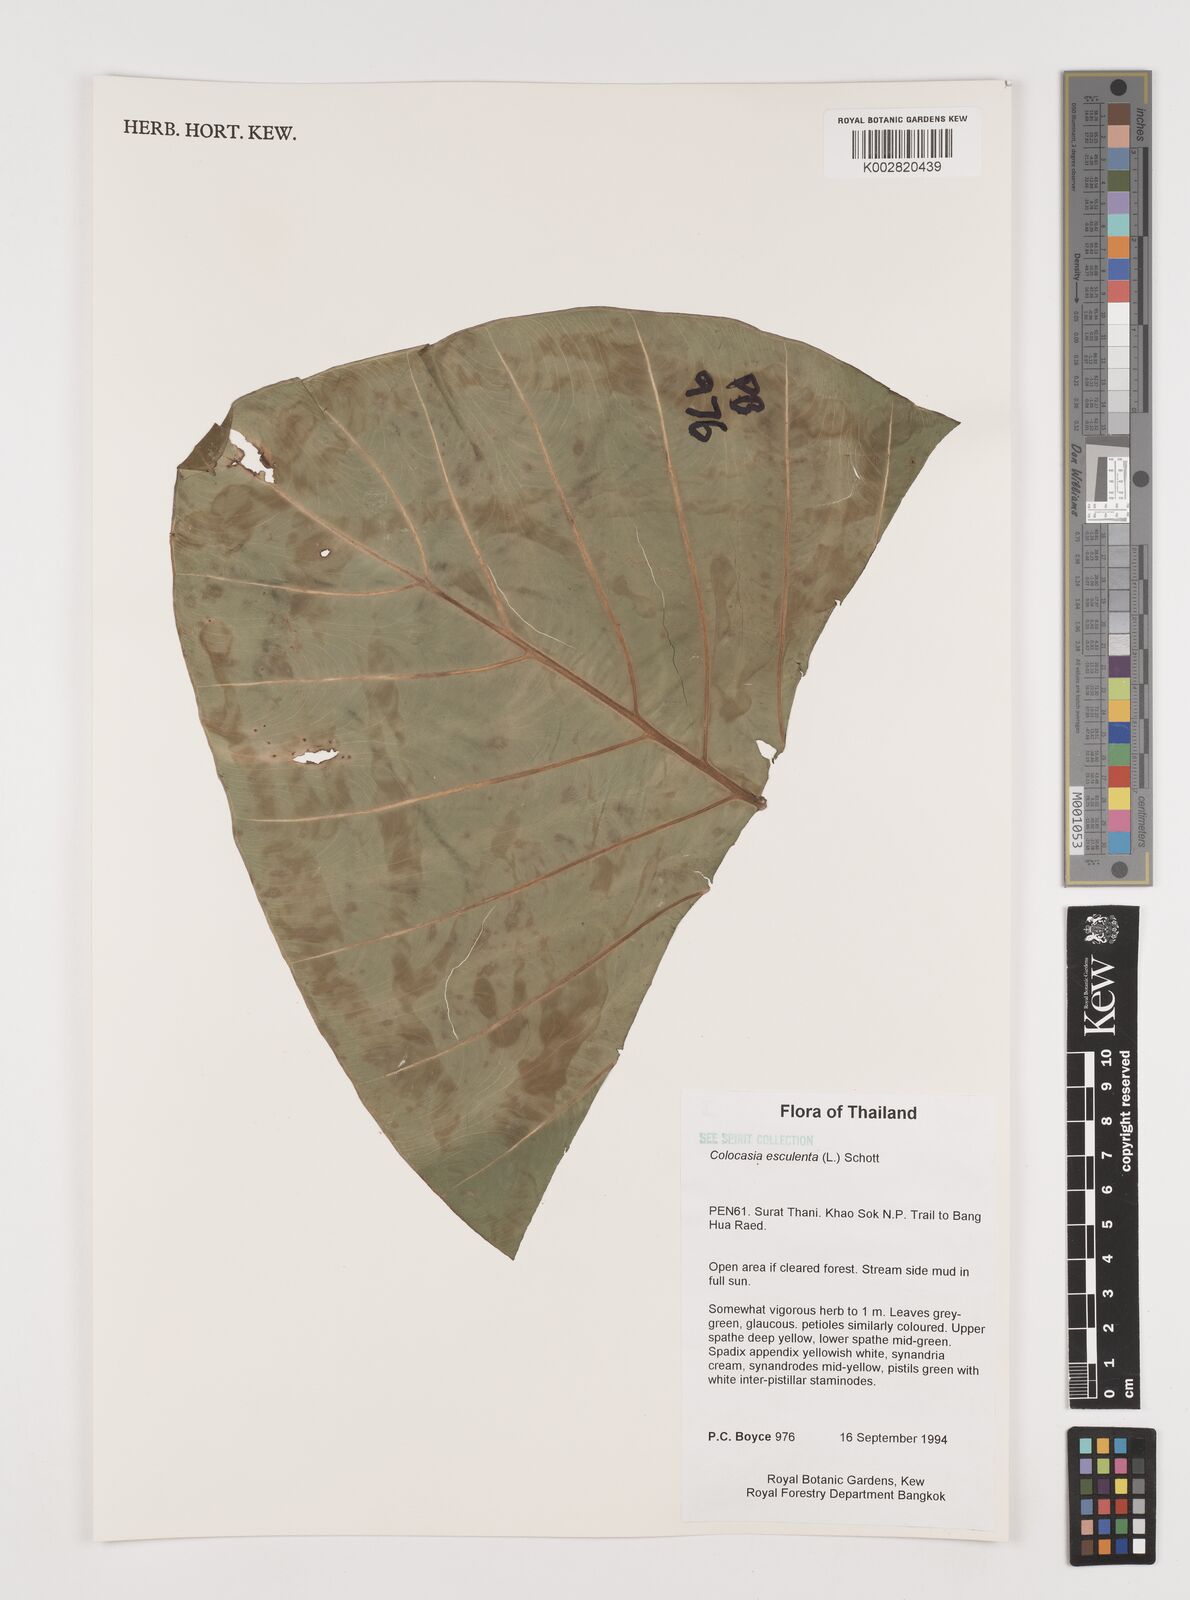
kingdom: Plantae
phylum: Tracheophyta
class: Liliopsida
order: Alismatales
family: Araceae
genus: Colocasia
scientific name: Colocasia esculenta
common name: Taro
